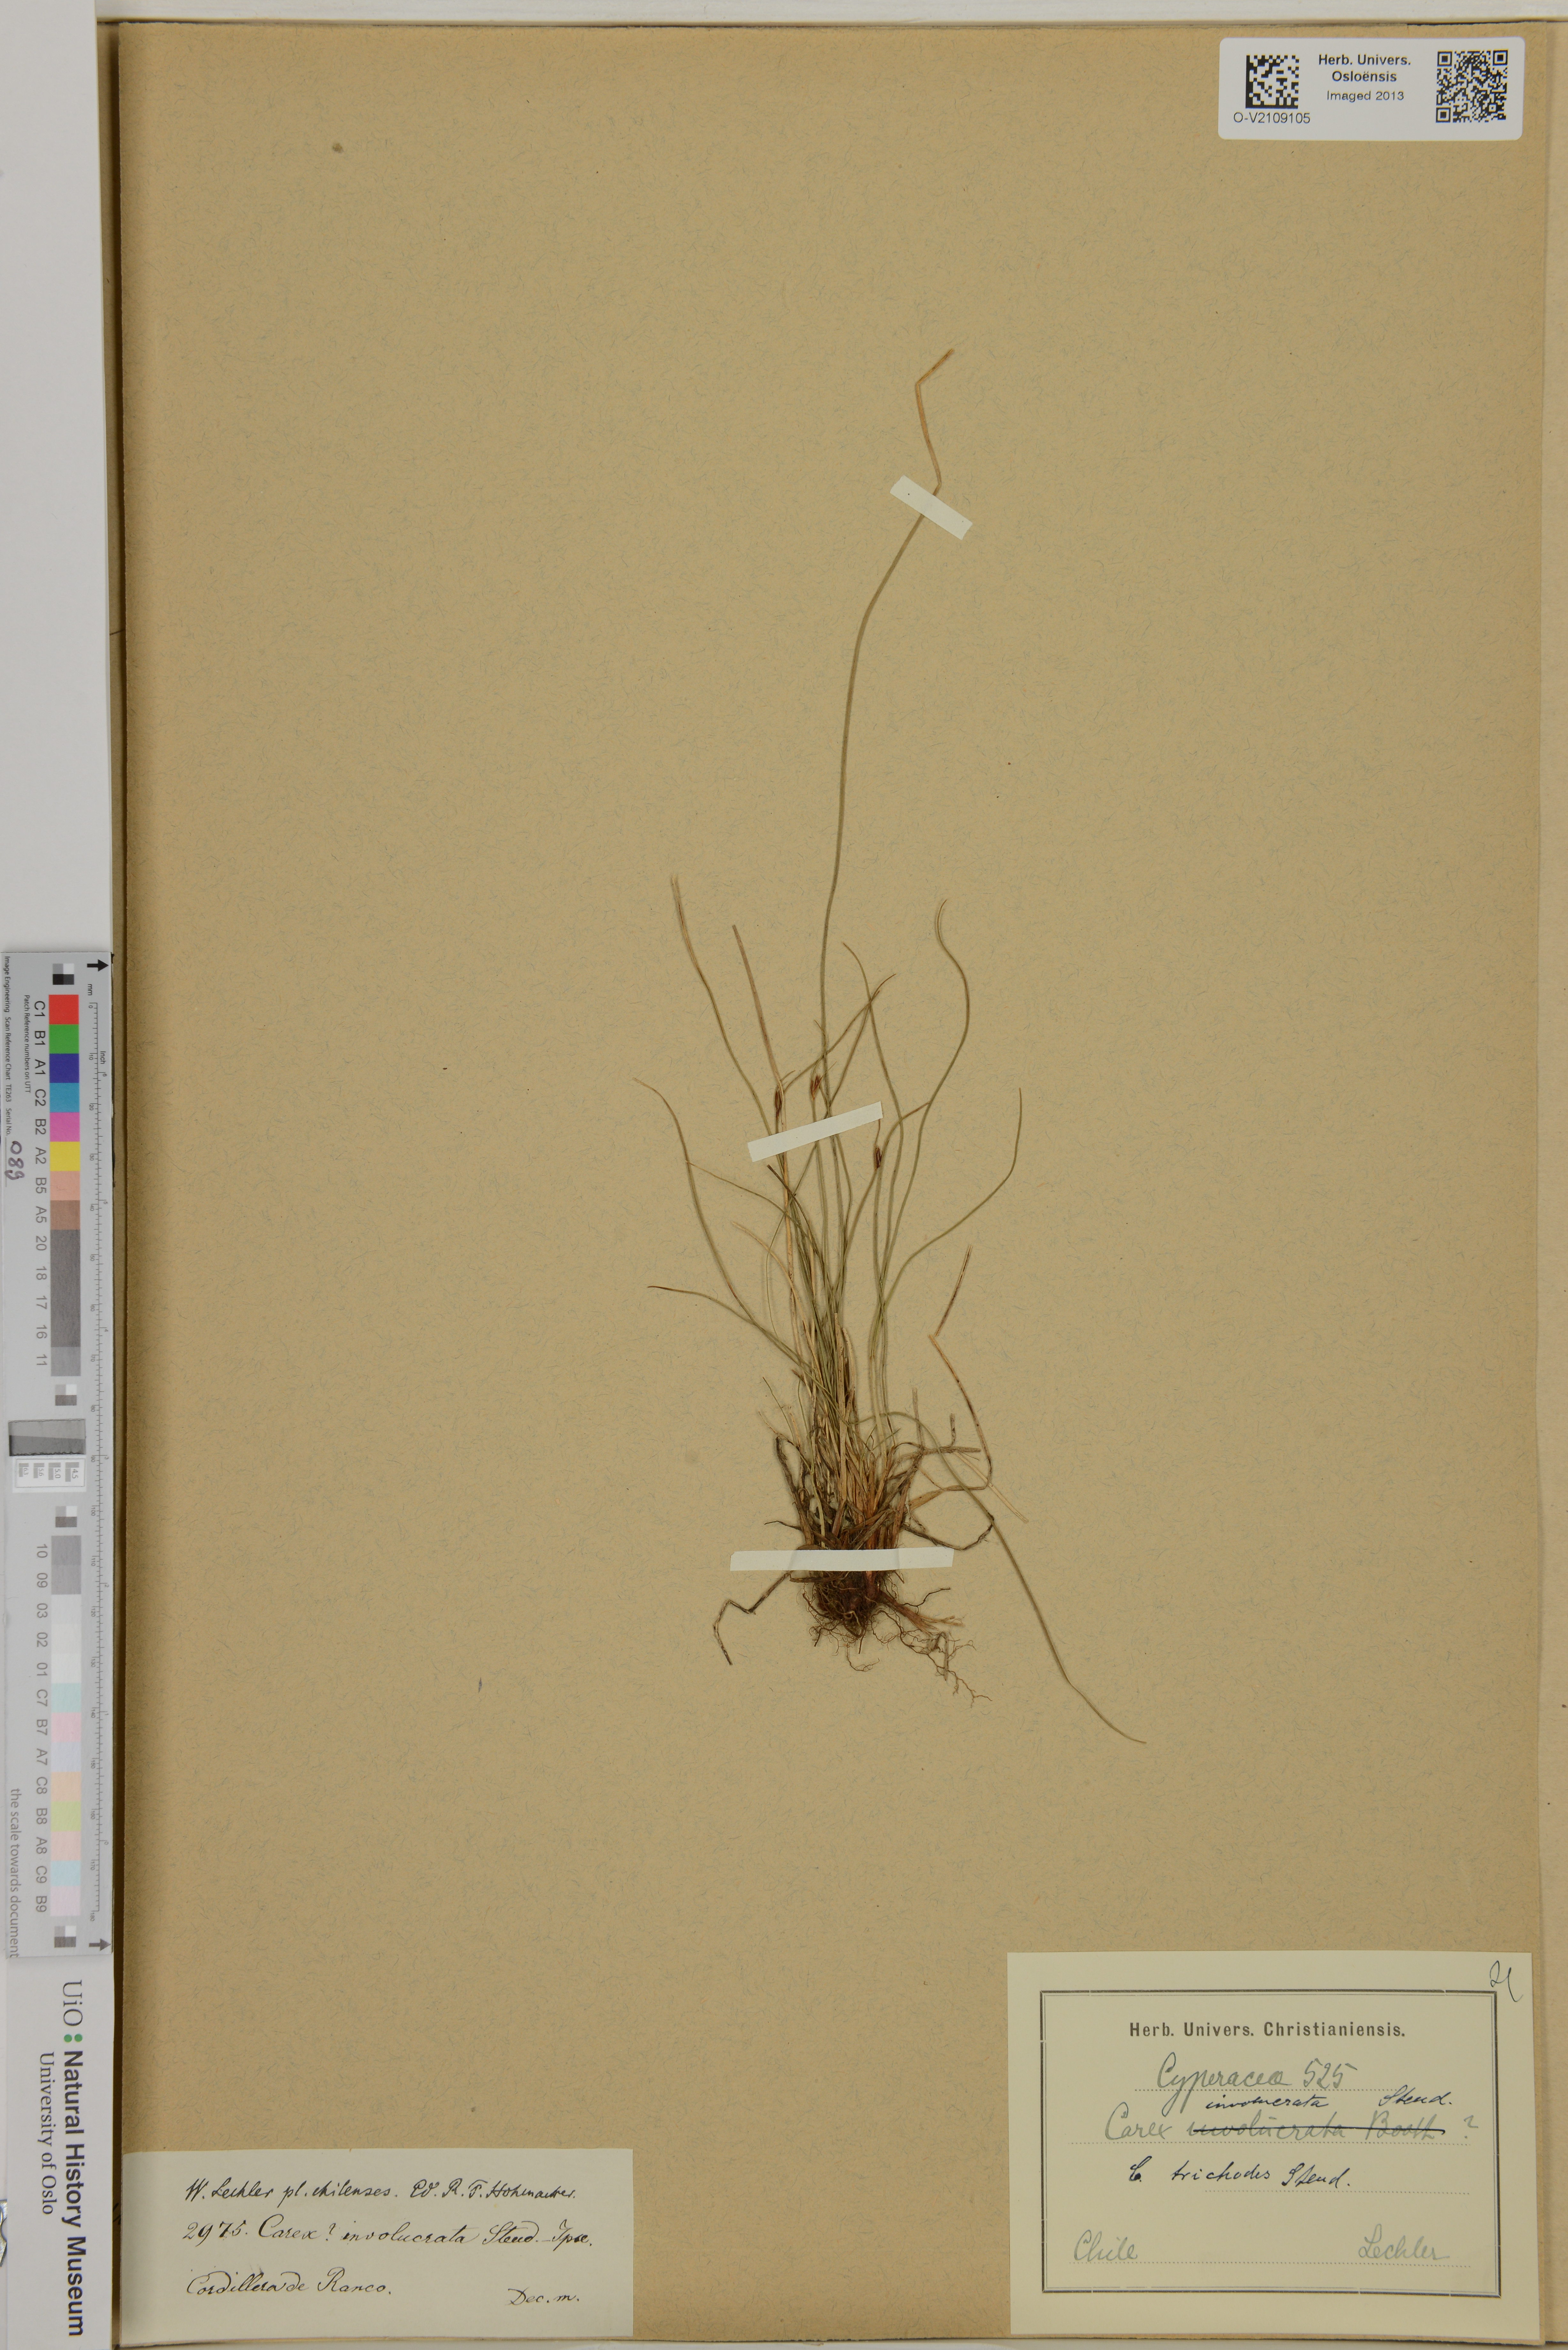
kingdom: Plantae
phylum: Tracheophyta
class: Liliopsida
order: Poales
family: Cyperaceae
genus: Carex
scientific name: Carex
